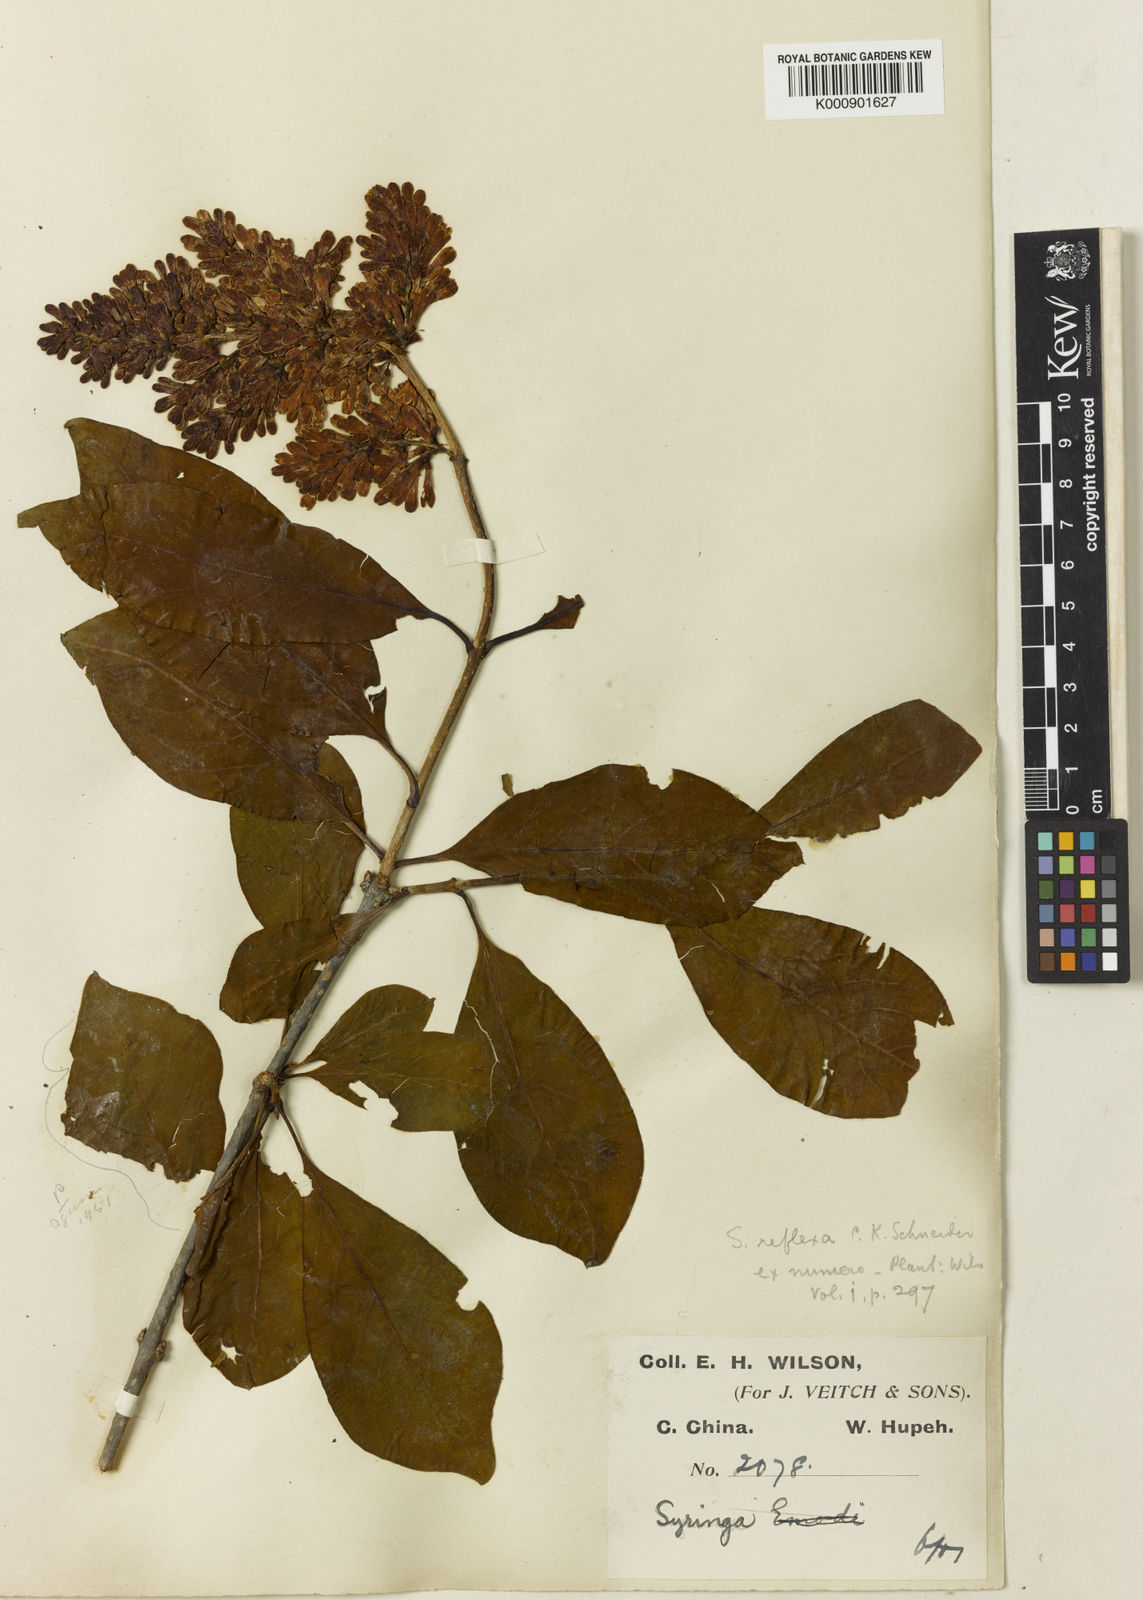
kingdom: Plantae
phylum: Tracheophyta
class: Magnoliopsida
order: Lamiales
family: Oleaceae
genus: Syringa
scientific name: Syringa komarowii
